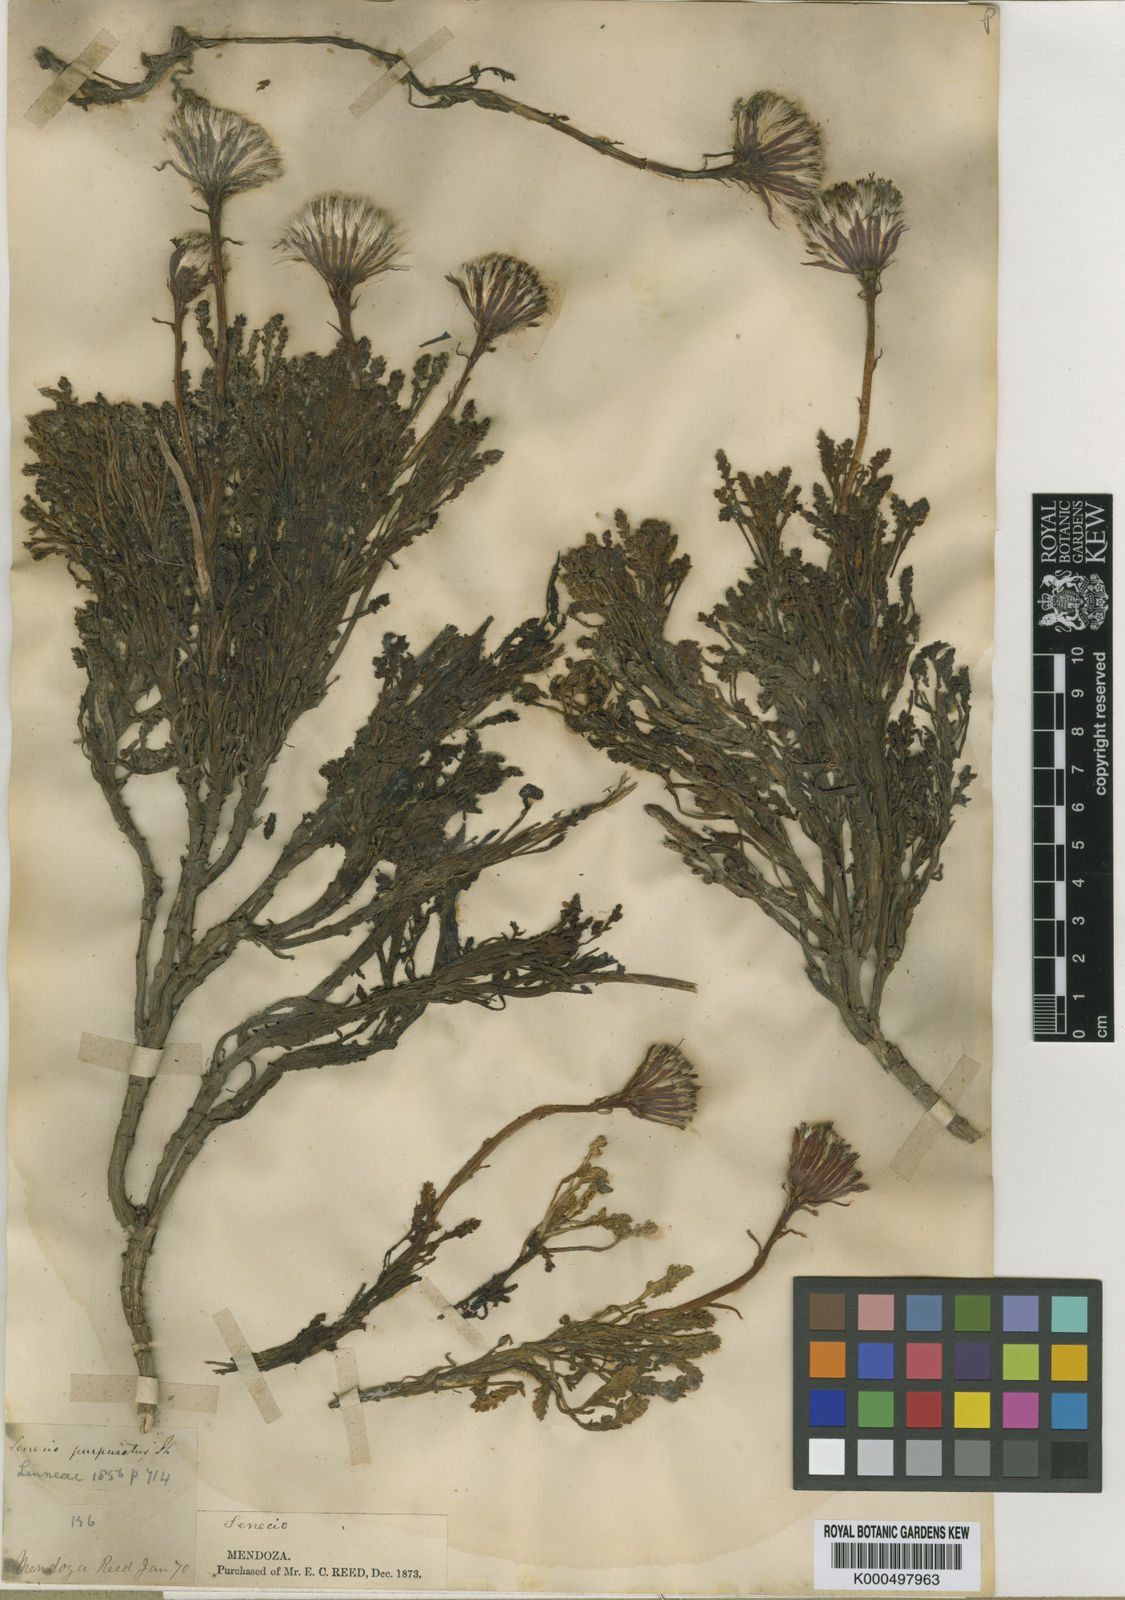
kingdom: Plantae
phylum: Tracheophyta
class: Magnoliopsida
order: Asterales
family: Asteraceae
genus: Senecio
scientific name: Senecio
